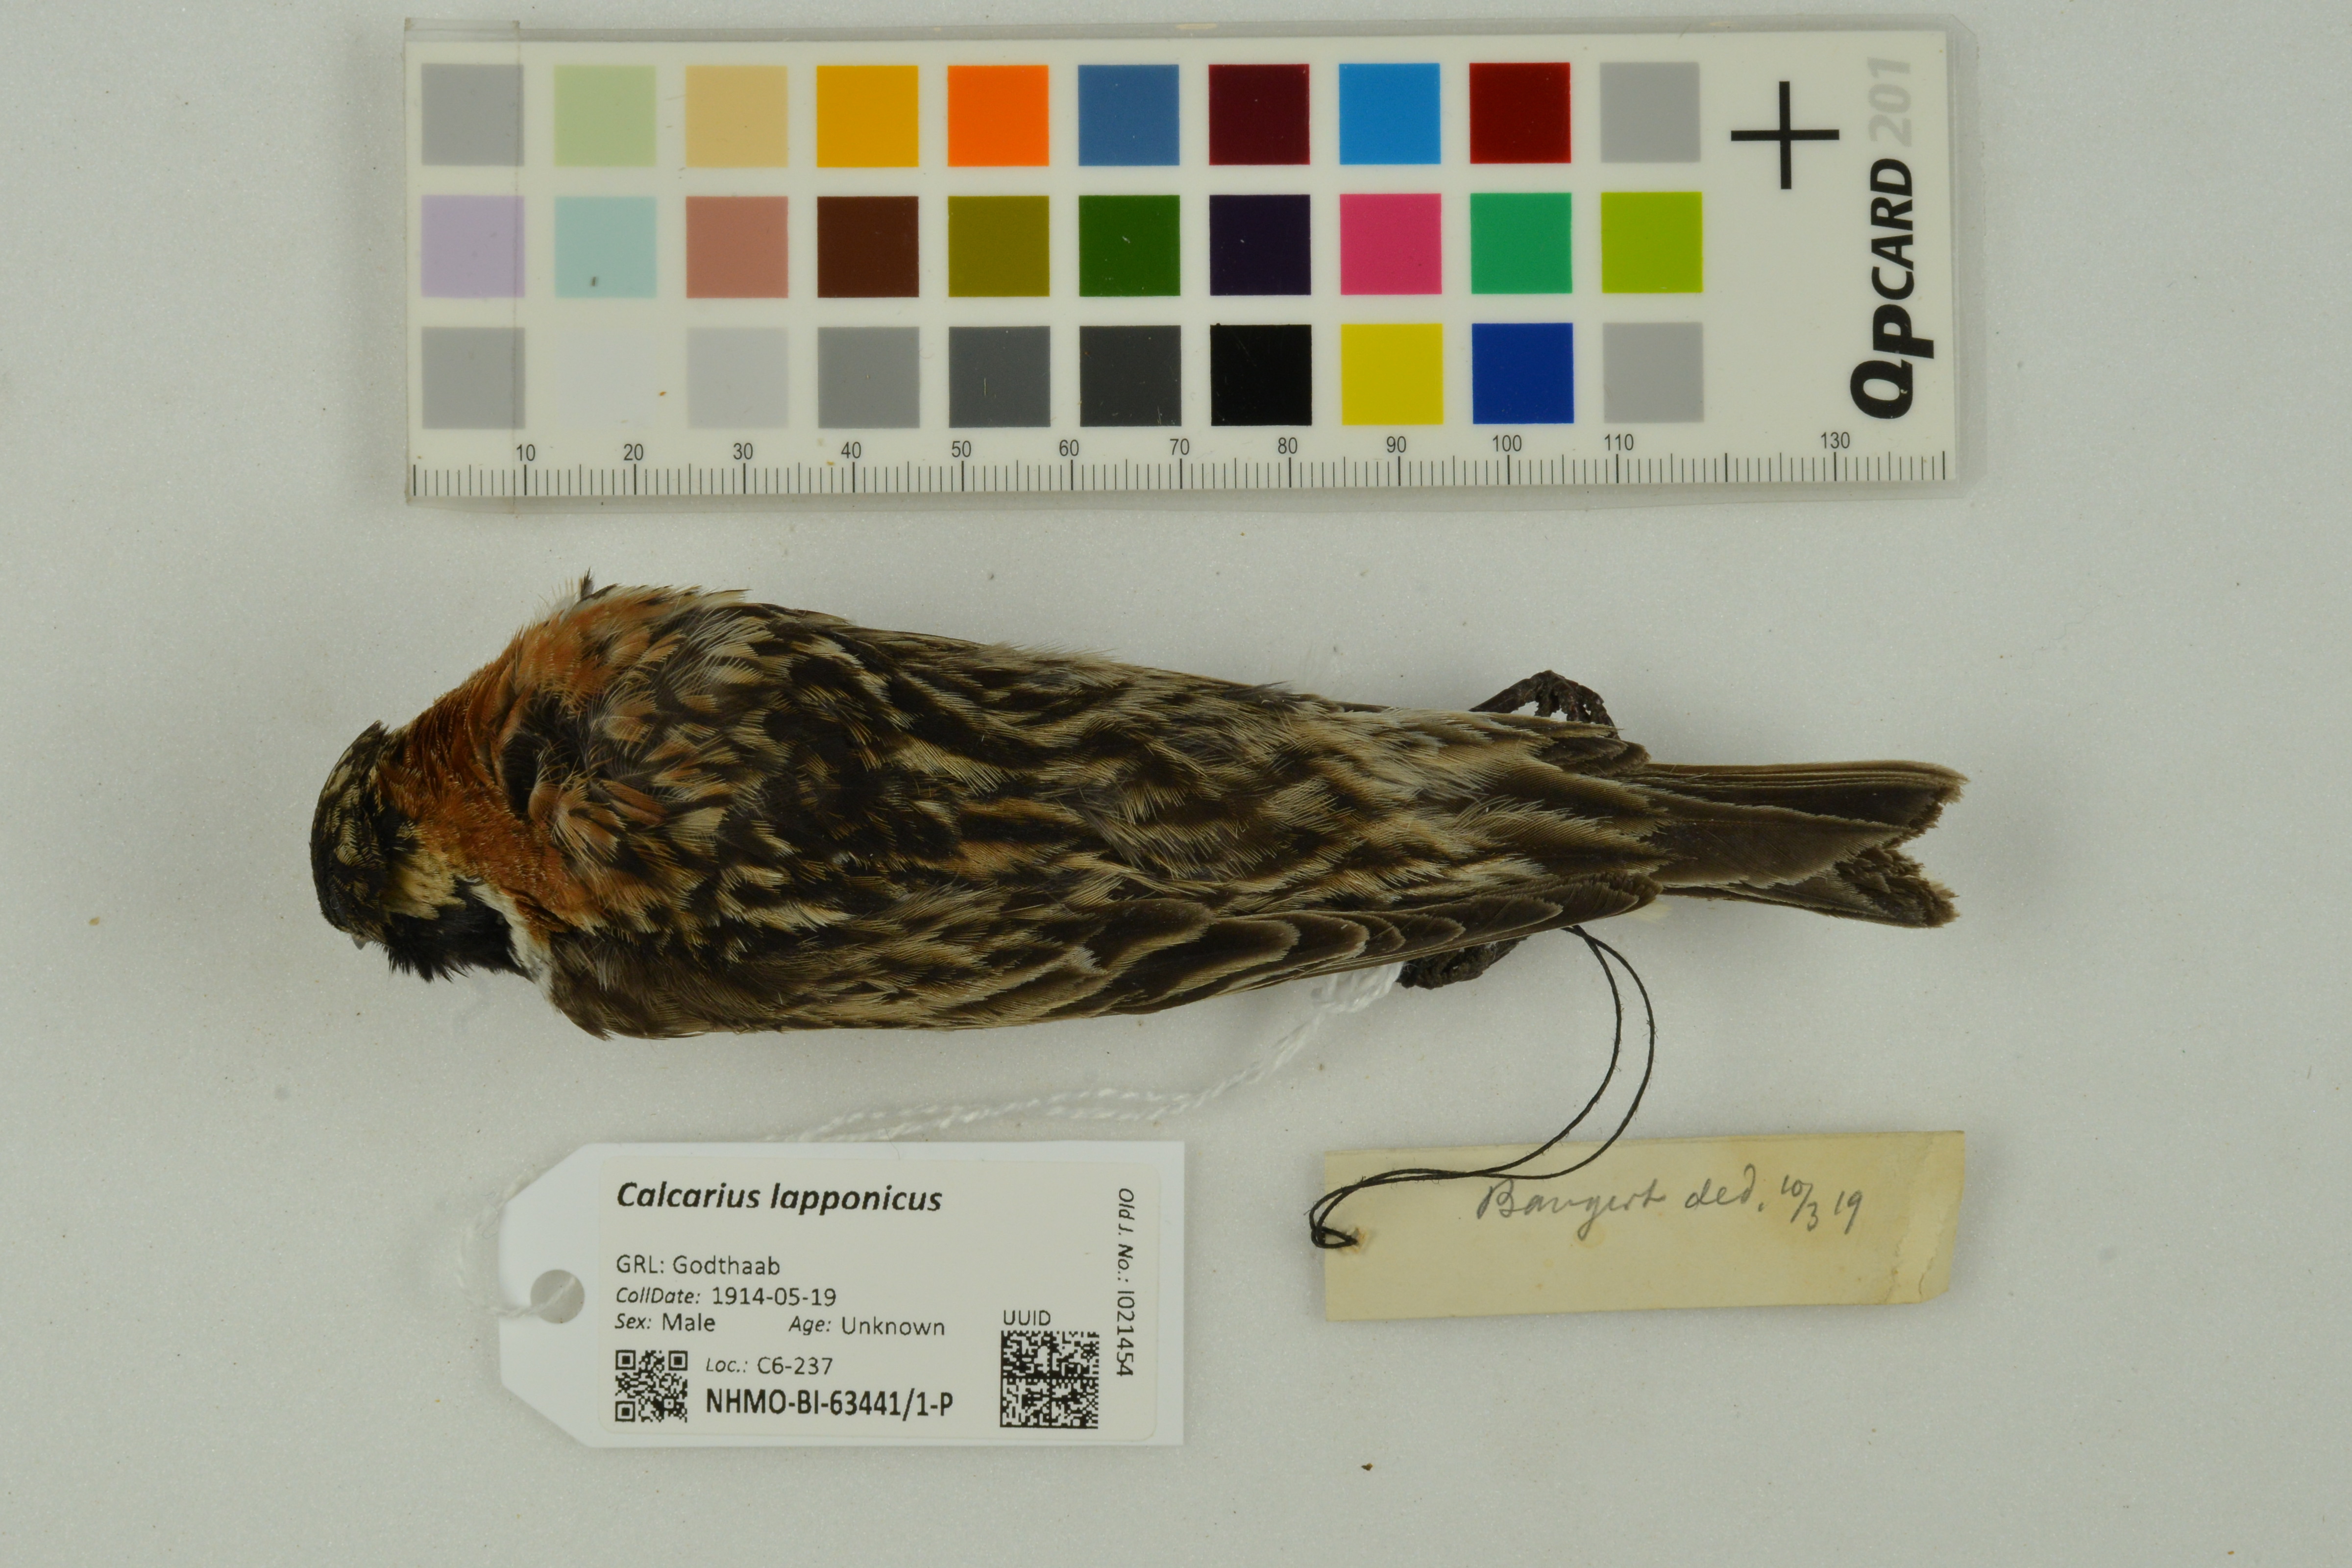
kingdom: Animalia
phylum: Chordata
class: Aves
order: Passeriformes
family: Calcariidae
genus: Calcarius
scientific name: Calcarius lapponicus
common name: Lapland longspur
